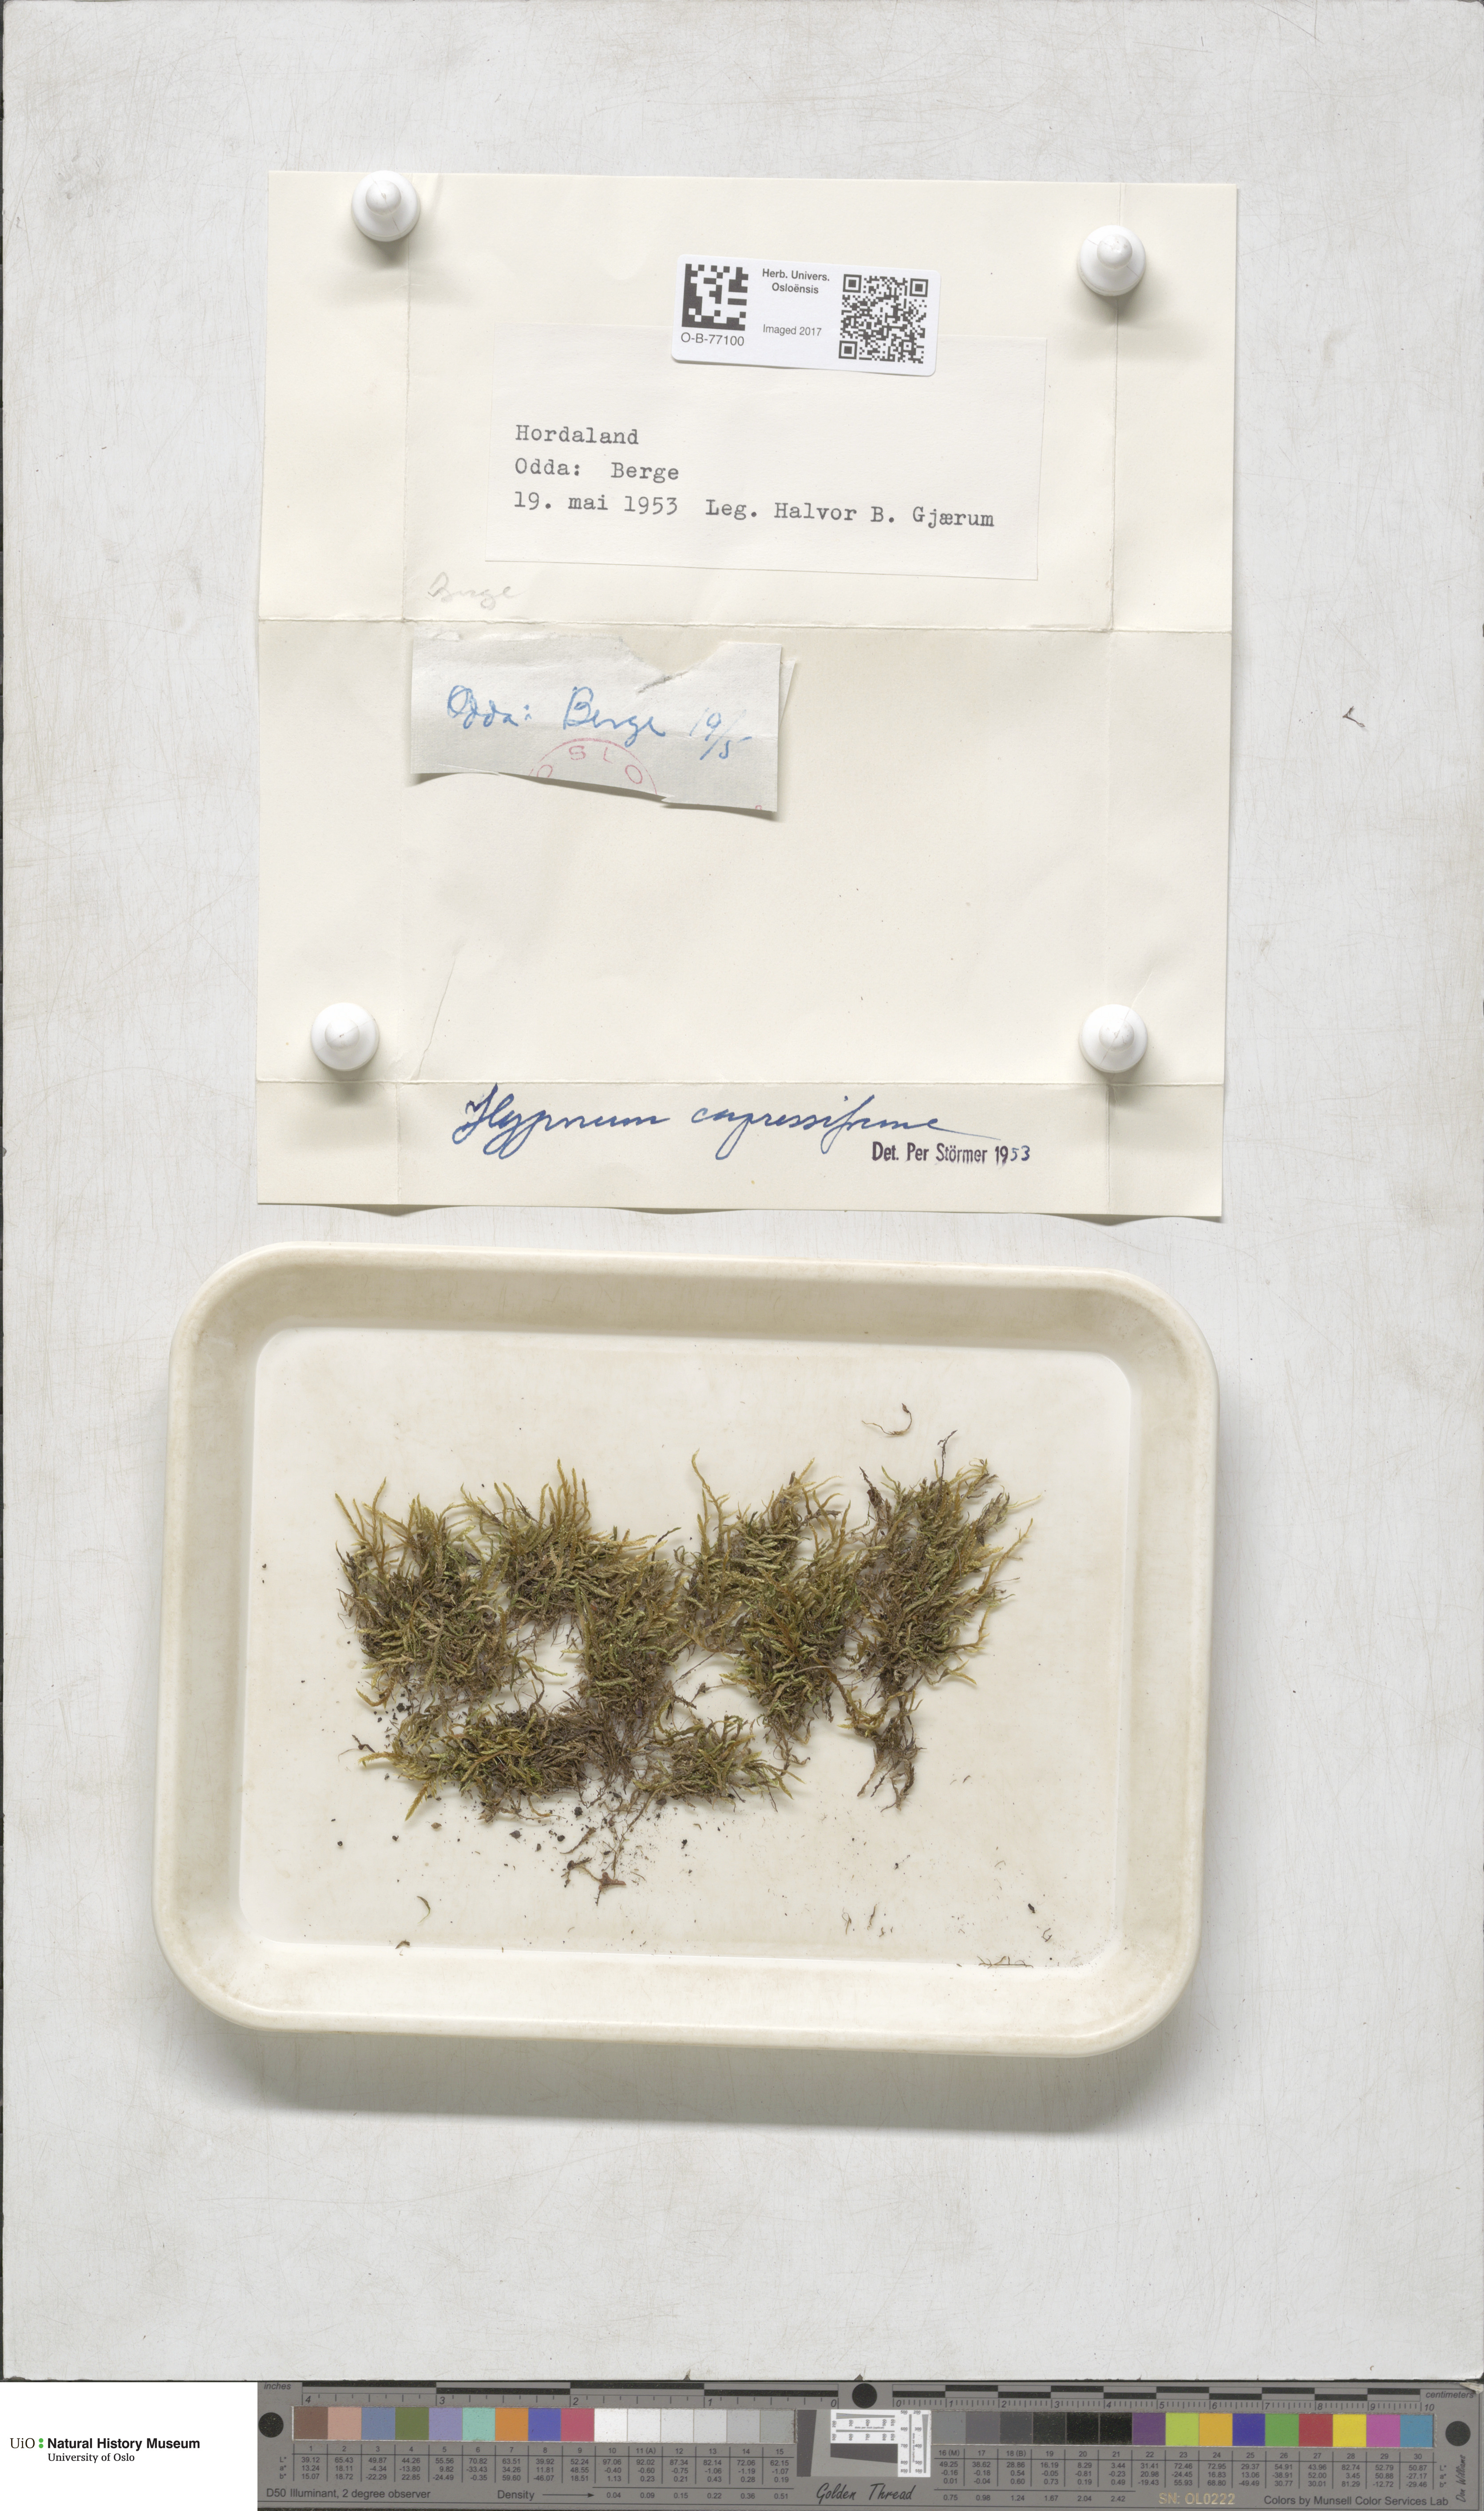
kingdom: Plantae
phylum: Bryophyta
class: Bryopsida
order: Hypnales
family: Hypnaceae
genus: Hypnum
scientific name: Hypnum cupressiforme
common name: Cypress-leaved plait-moss
